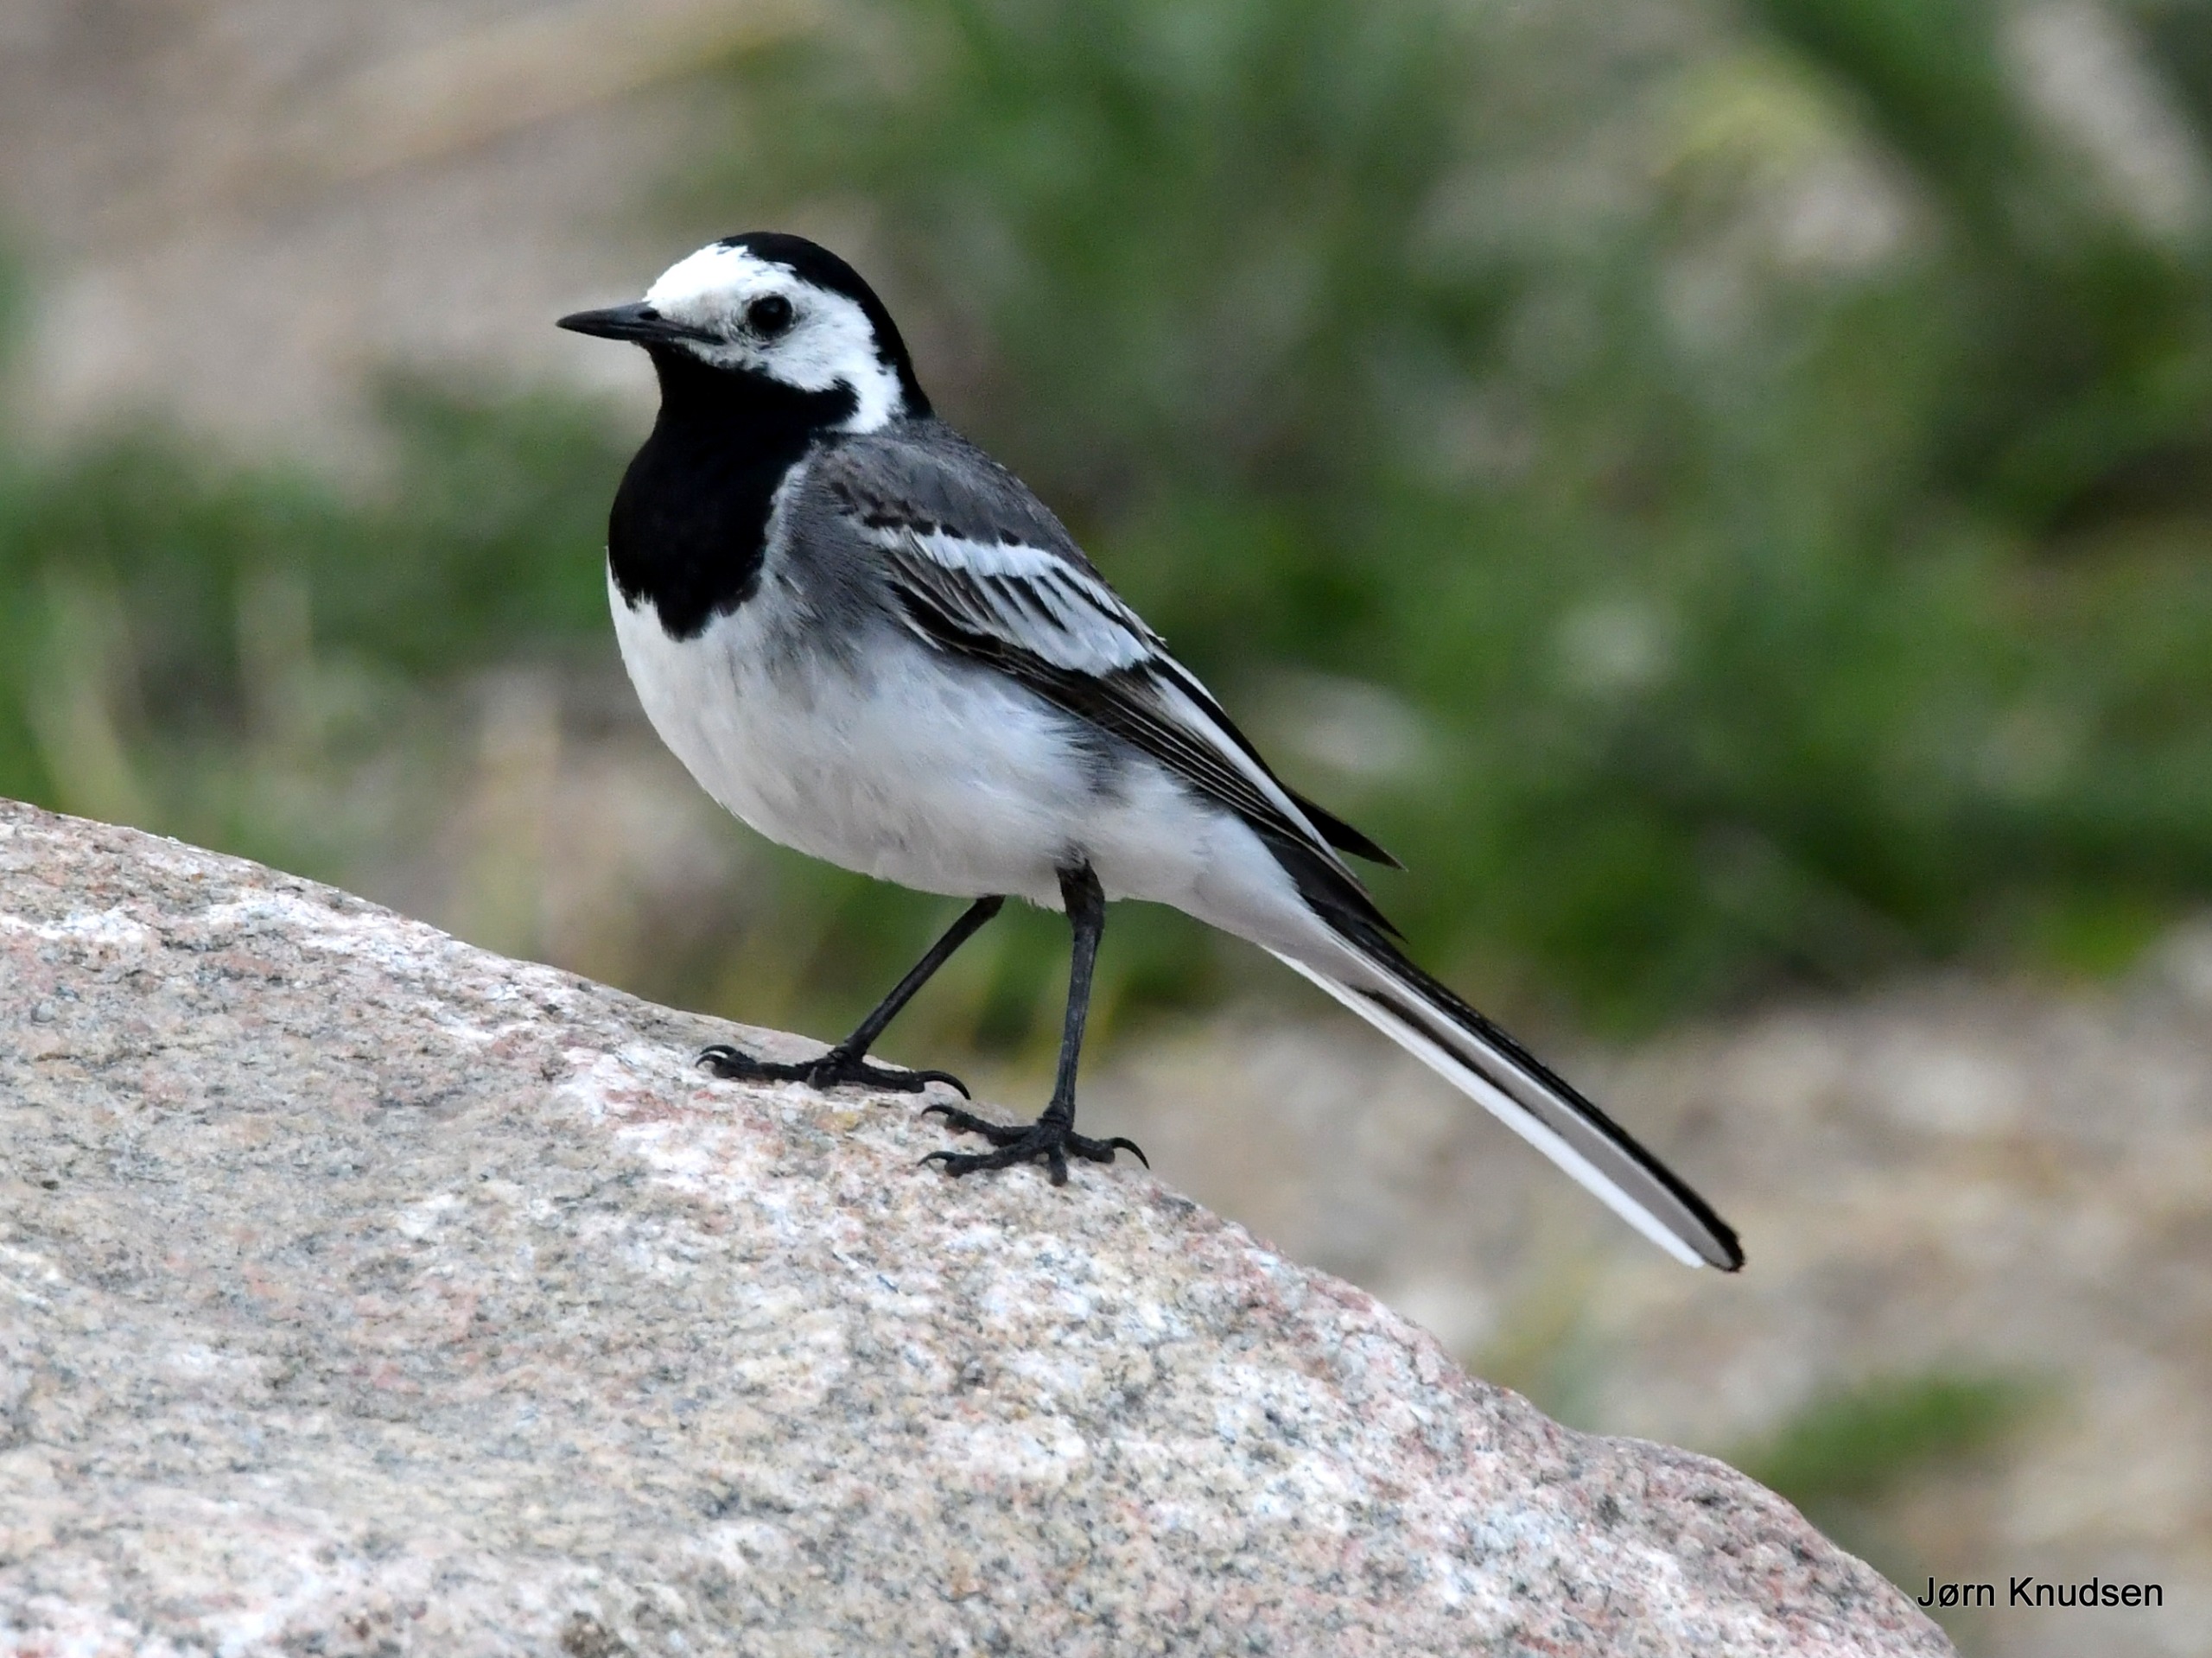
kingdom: Animalia
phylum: Chordata
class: Aves
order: Passeriformes
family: Motacillidae
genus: Motacilla
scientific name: Motacilla alba
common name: Hvid vipstjert
